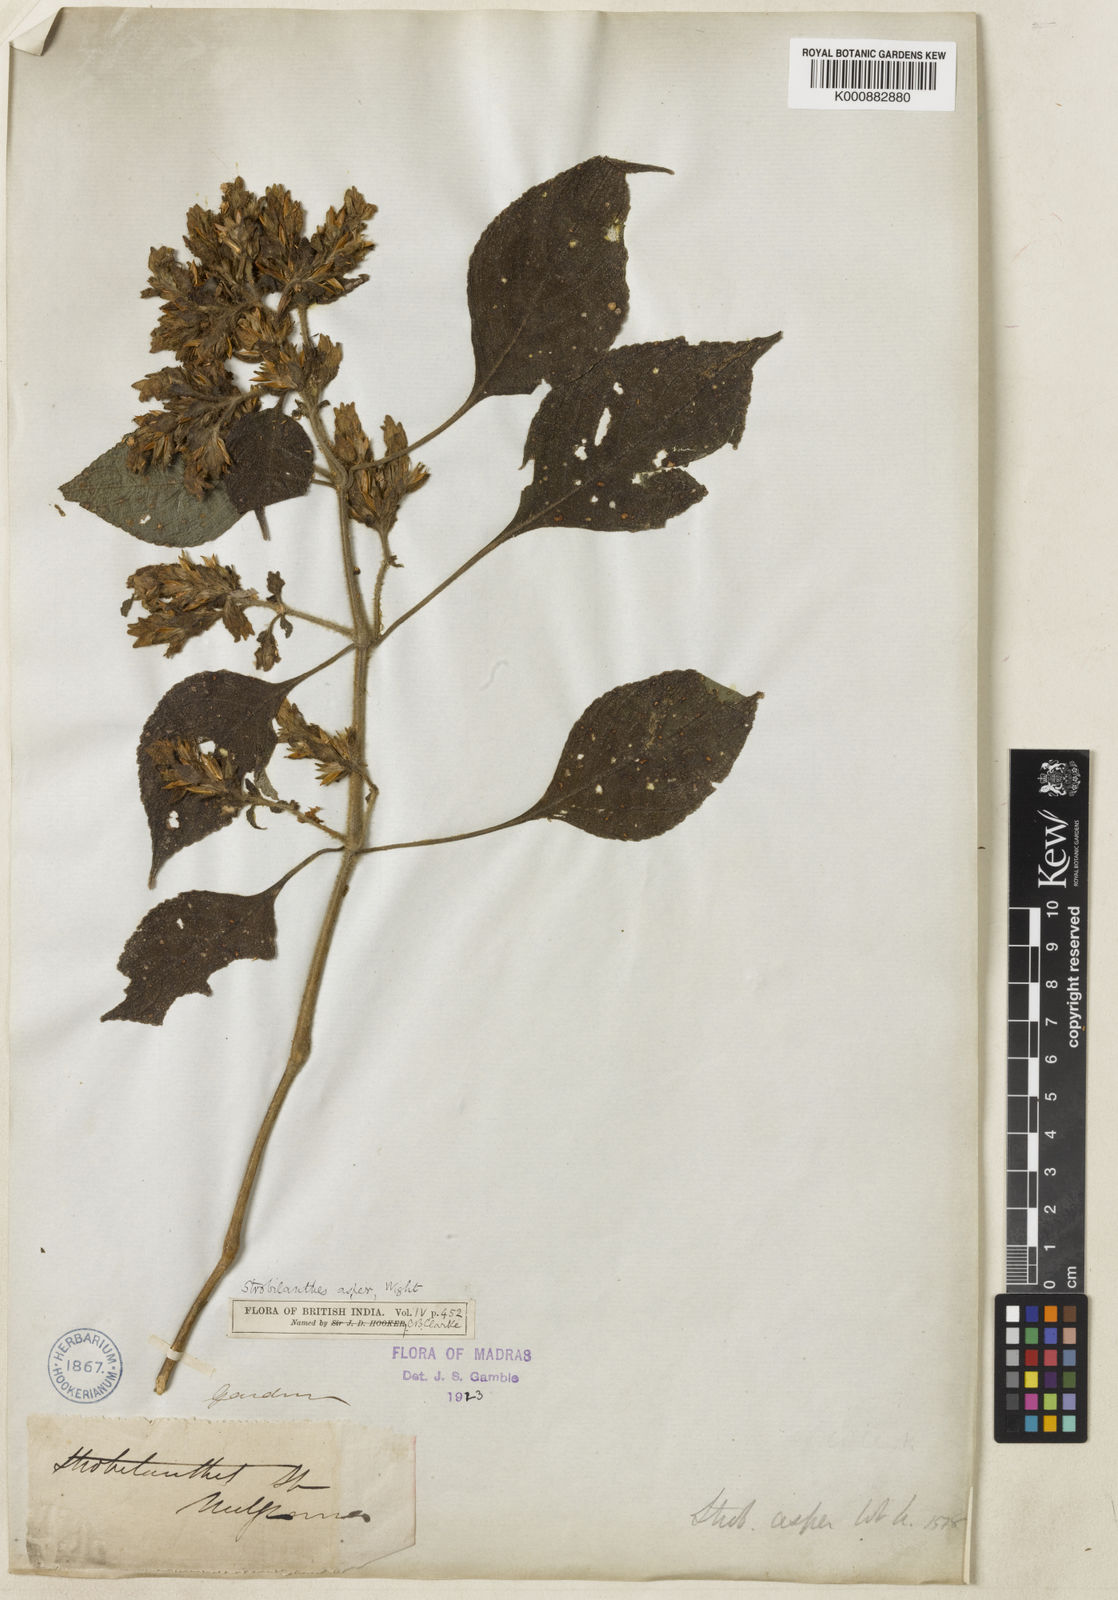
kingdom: Plantae
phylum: Tracheophyta
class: Magnoliopsida
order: Lamiales
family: Acanthaceae
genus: Strobilanthes
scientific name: Strobilanthes ciliata
